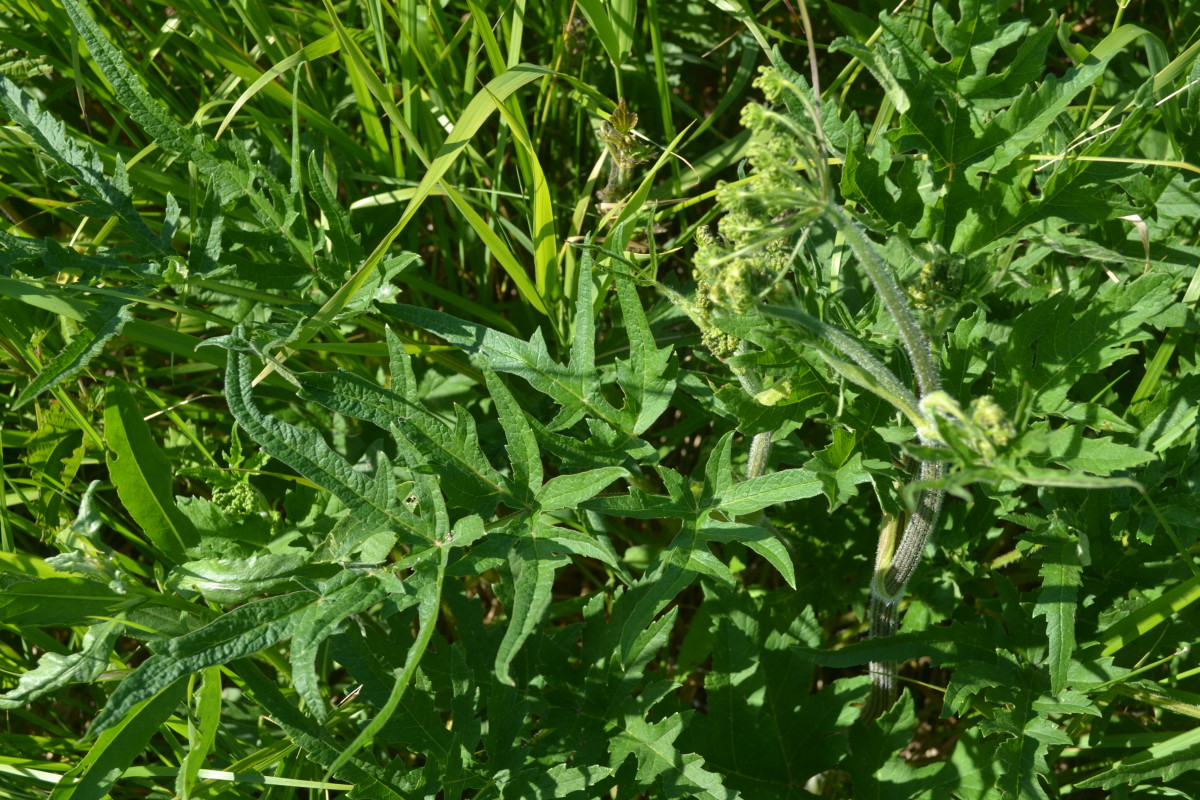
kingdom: Plantae
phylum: Tracheophyta
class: Magnoliopsida
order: Apiales
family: Apiaceae
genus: Heracleum
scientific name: Heracleum sphondylium
